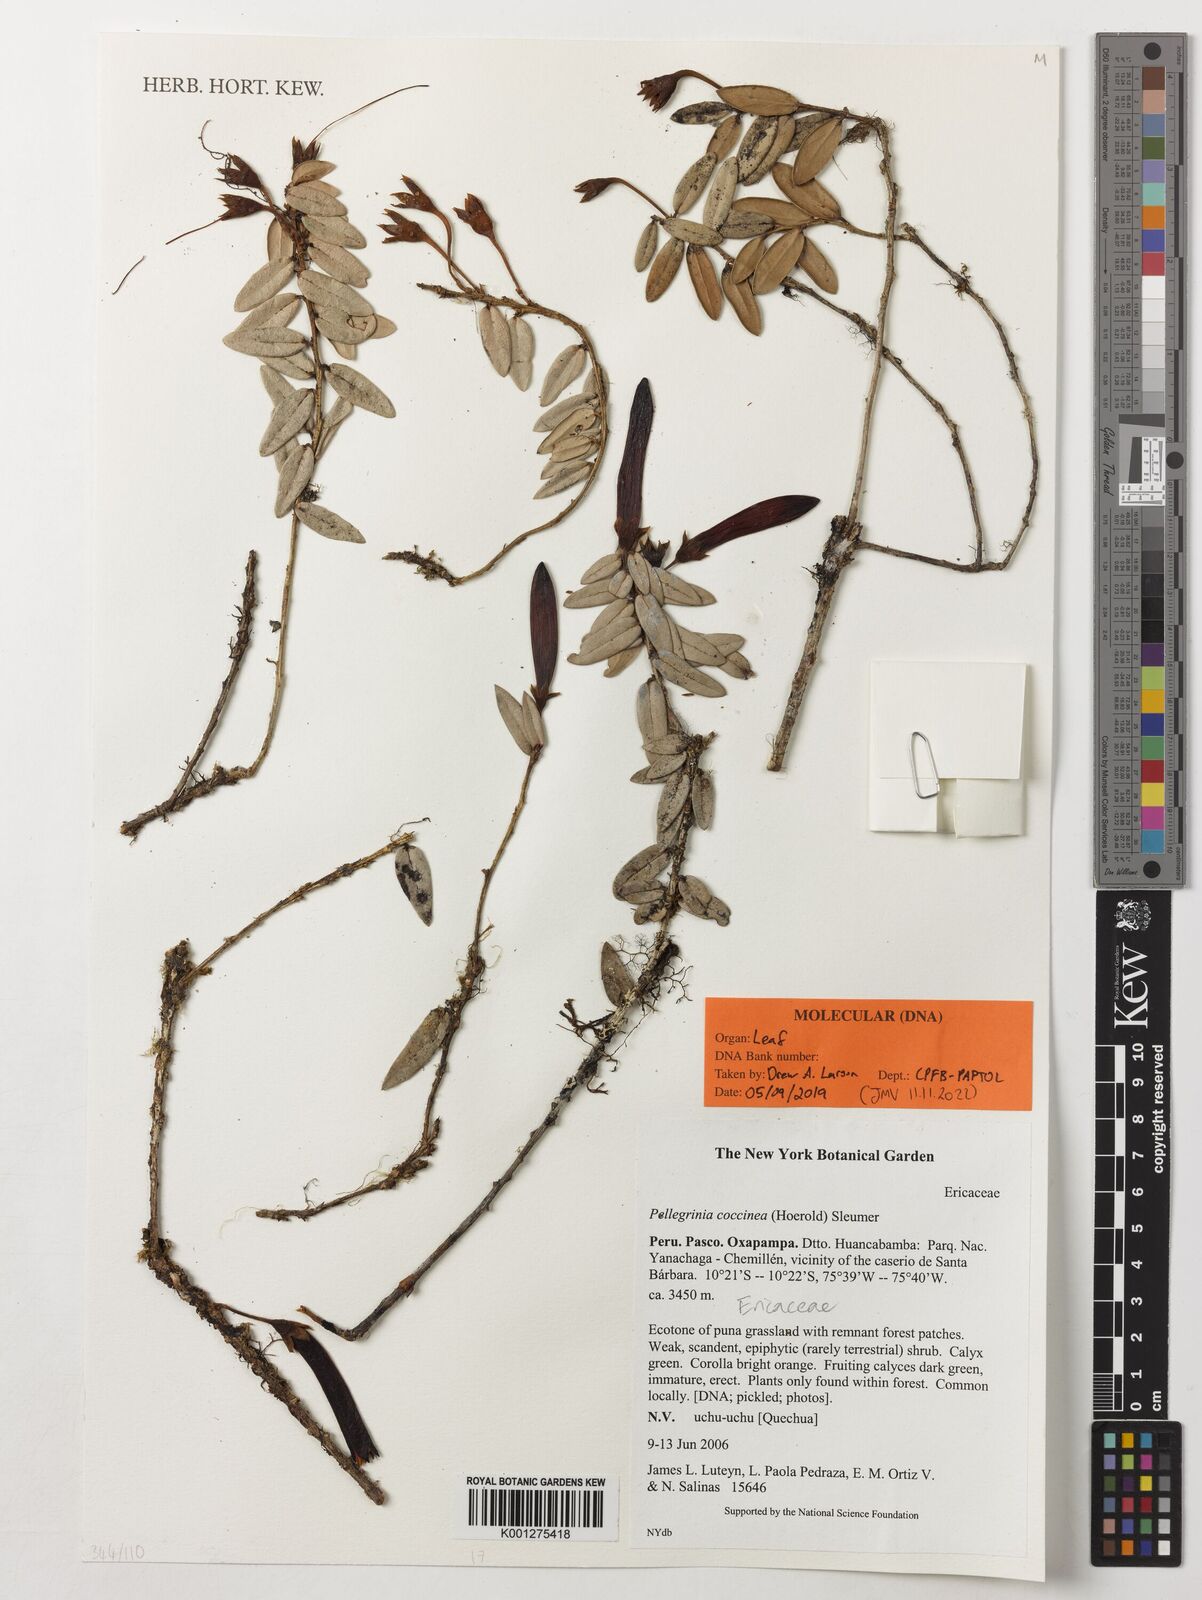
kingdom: Plantae
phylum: Tracheophyta
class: Magnoliopsida
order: Ericales
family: Ericaceae
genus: Pellegrinia
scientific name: Pellegrinia coccinea
